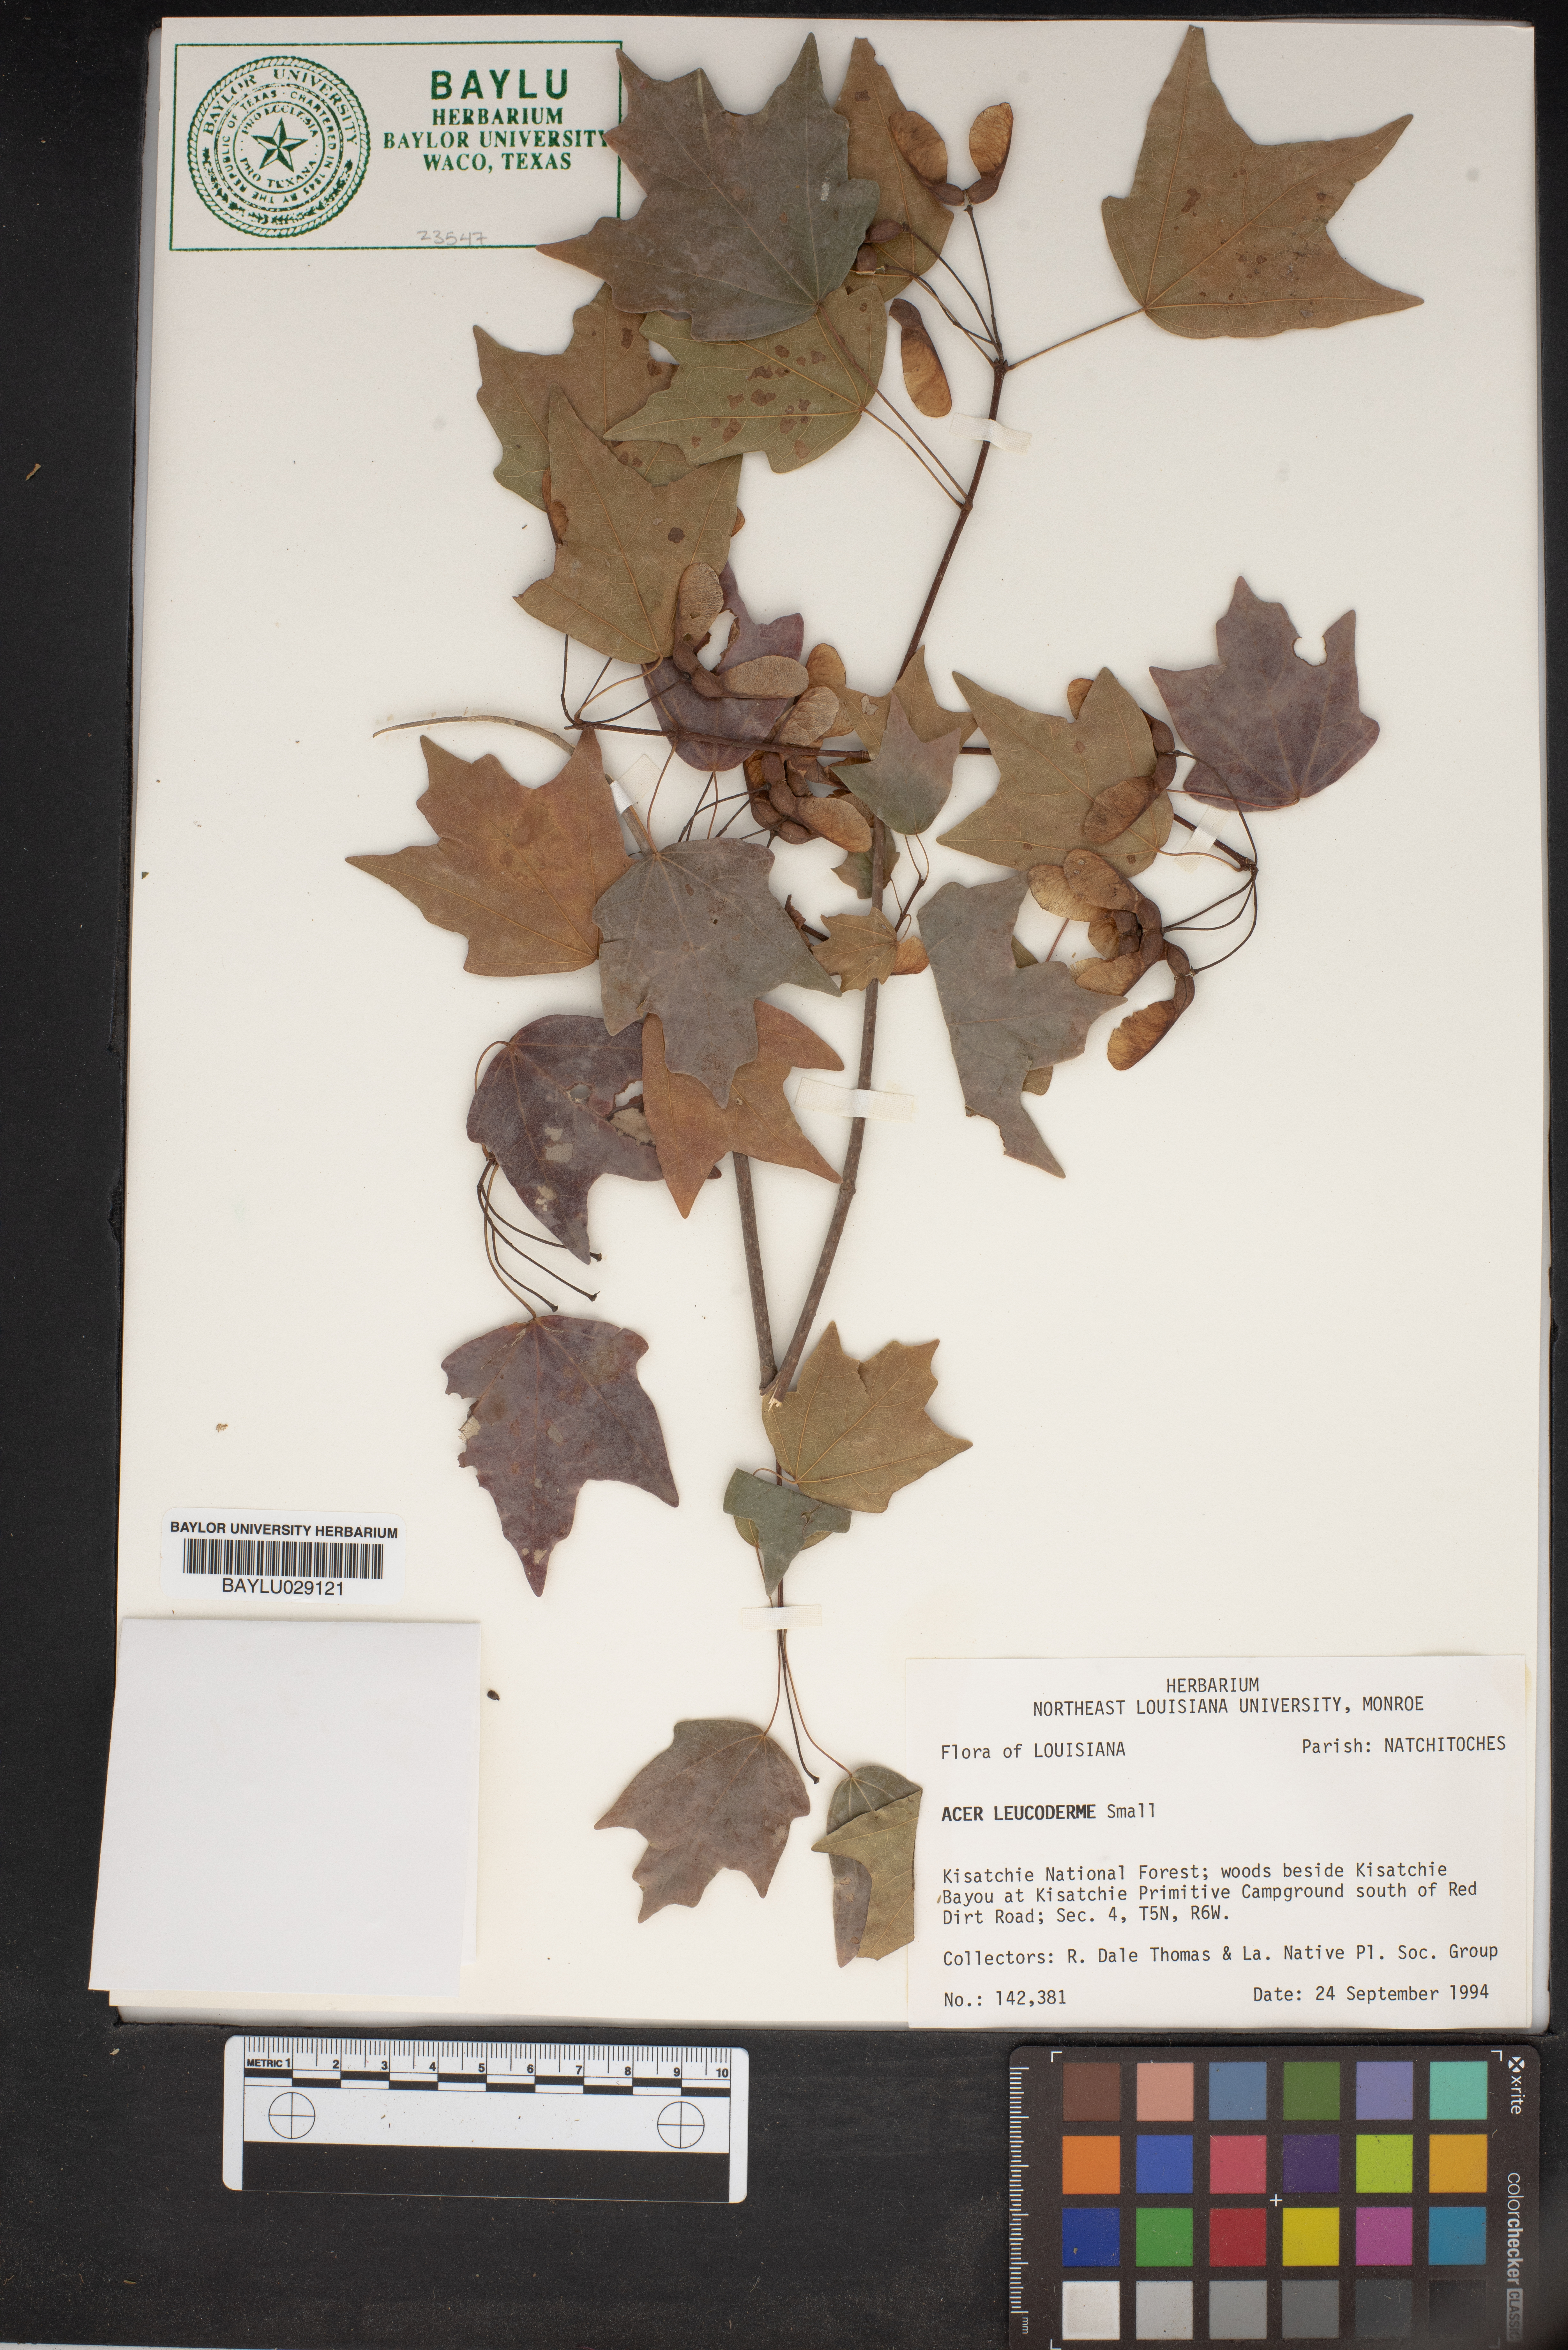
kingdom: Plantae
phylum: Tracheophyta
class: Magnoliopsida
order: Sapindales
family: Sapindaceae
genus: Acer
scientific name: Acer leucoderme
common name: Chalk maple
